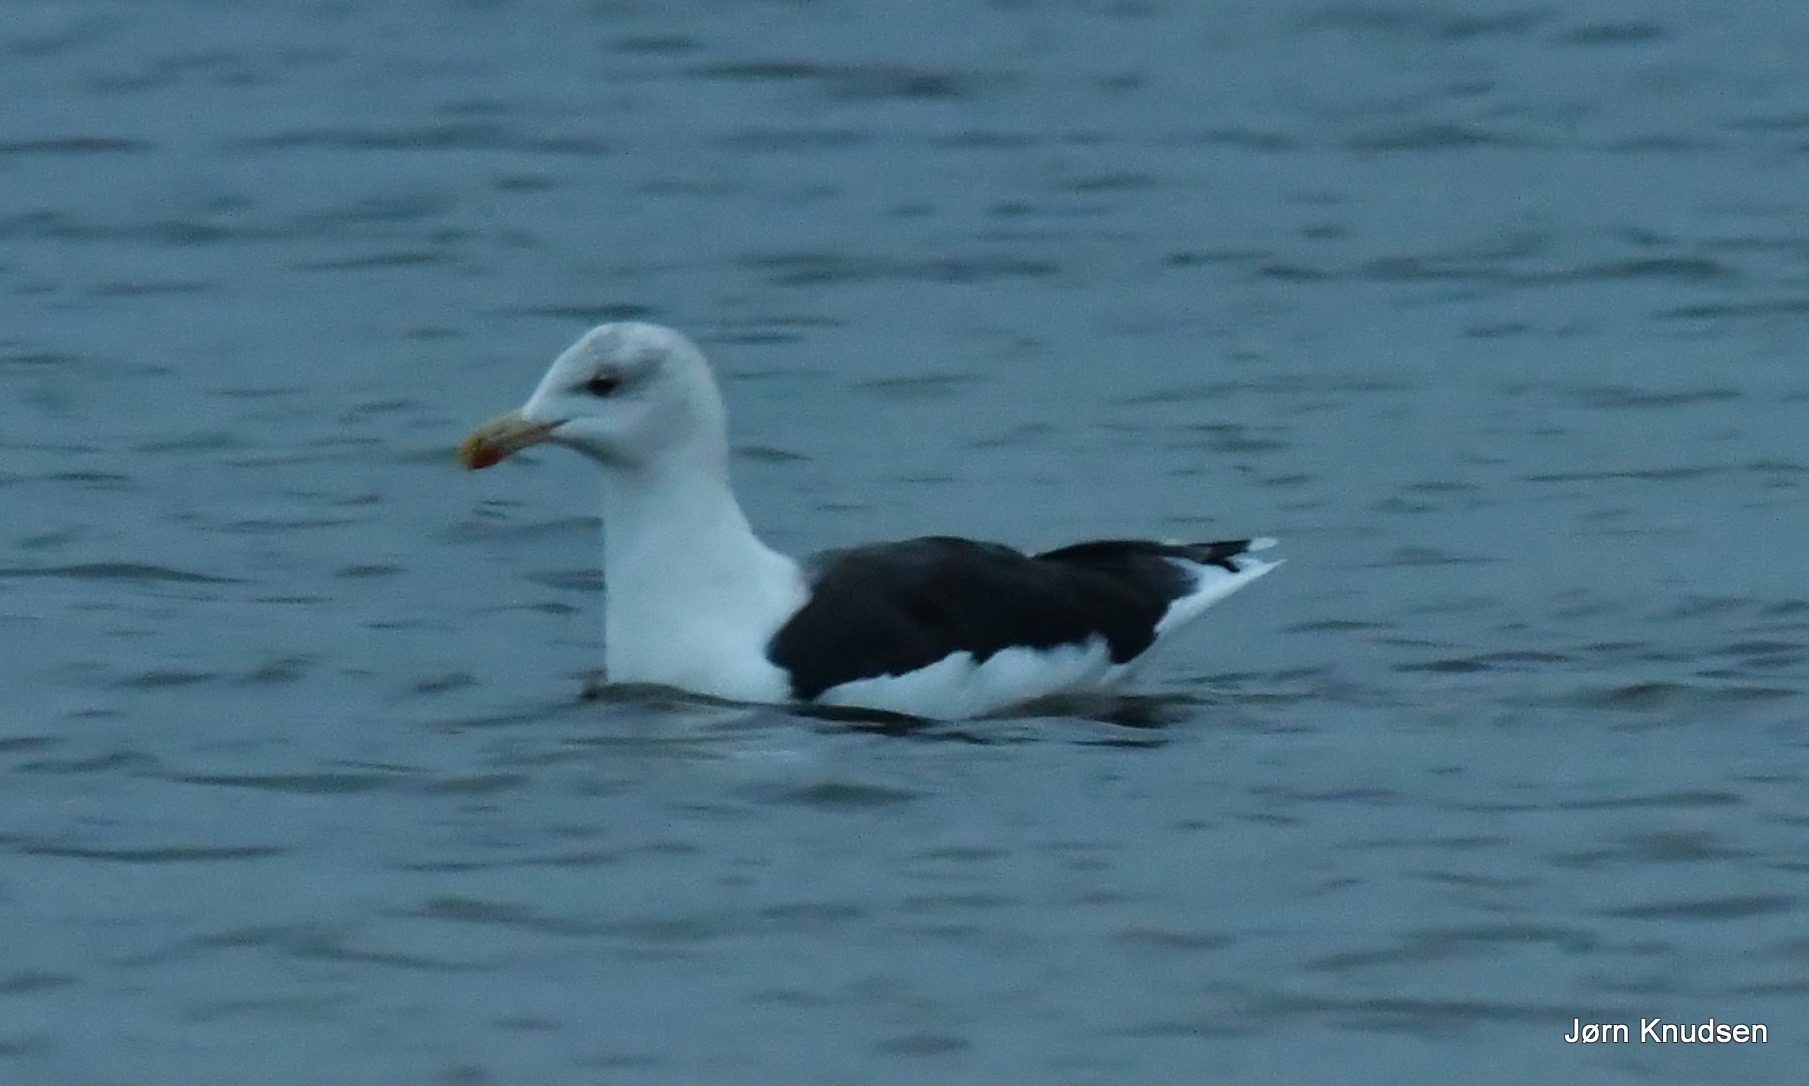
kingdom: Animalia
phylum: Chordata
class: Aves
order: Charadriiformes
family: Laridae
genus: Larus
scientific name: Larus marinus
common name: Svartbag
